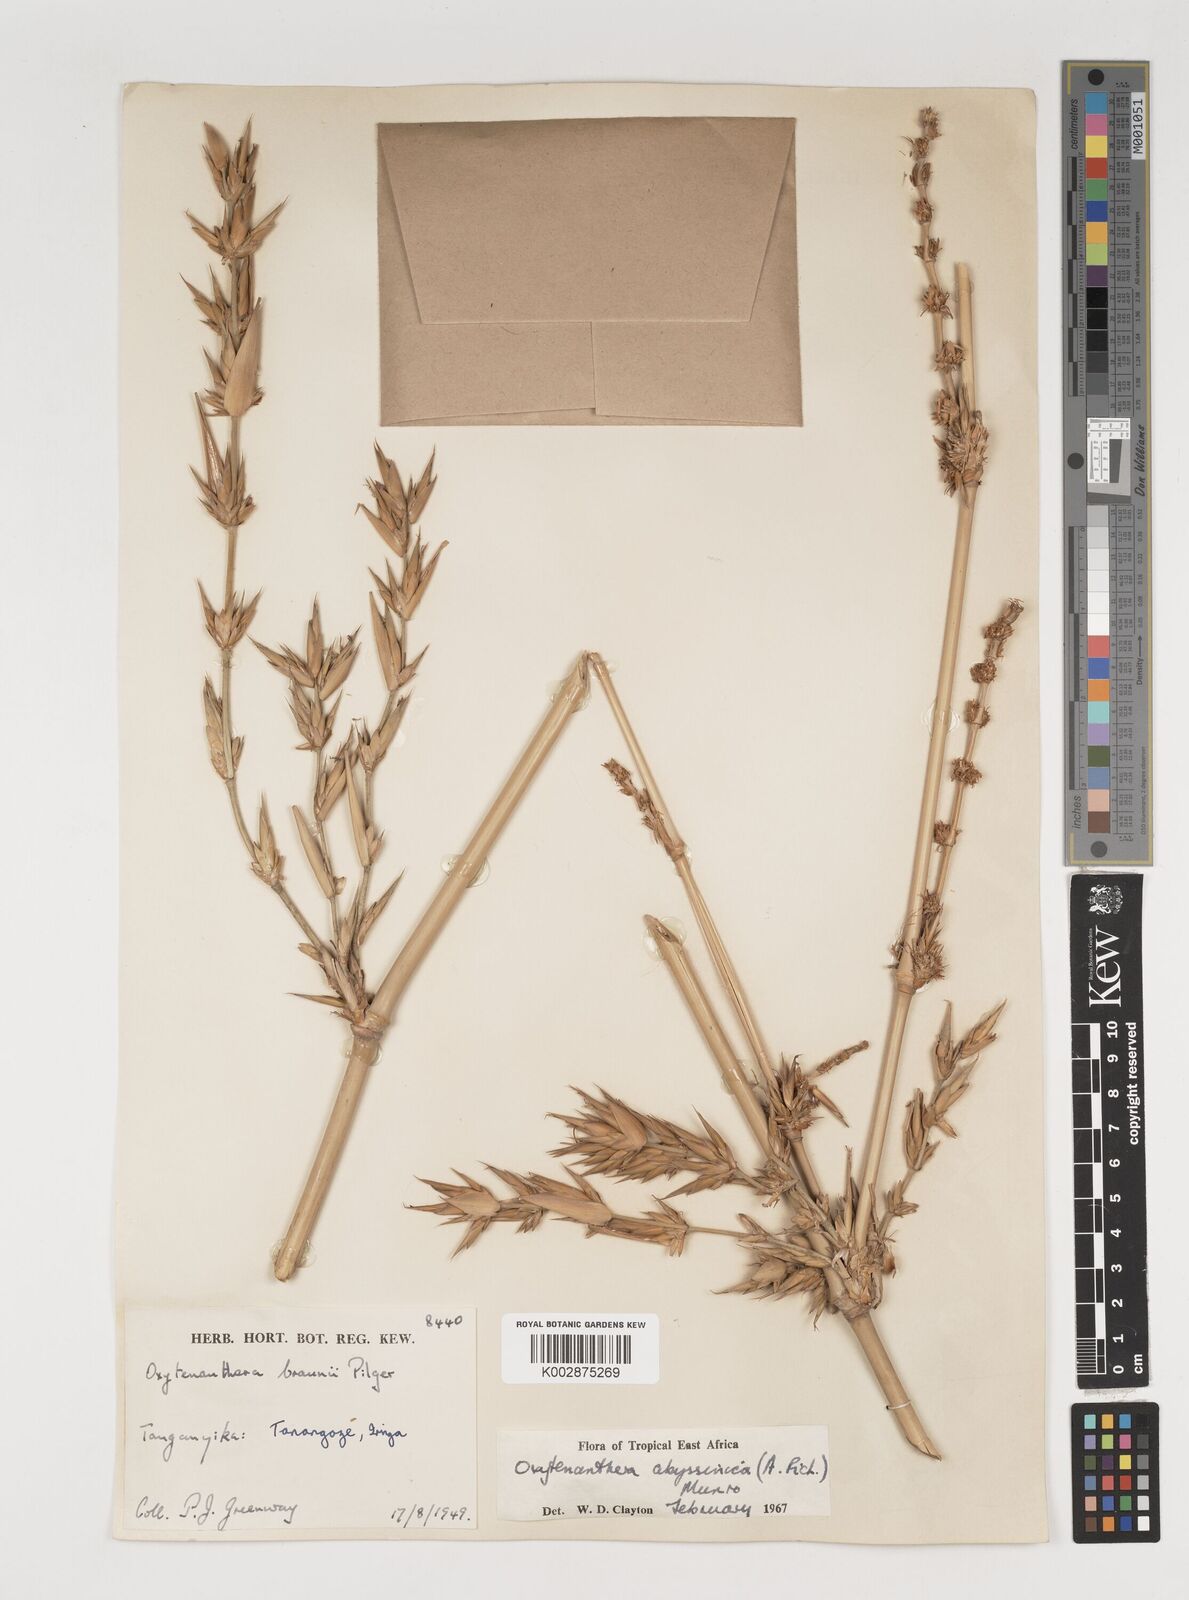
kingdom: Plantae
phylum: Tracheophyta
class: Liliopsida
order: Poales
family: Poaceae
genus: Oxytenanthera
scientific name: Oxytenanthera
